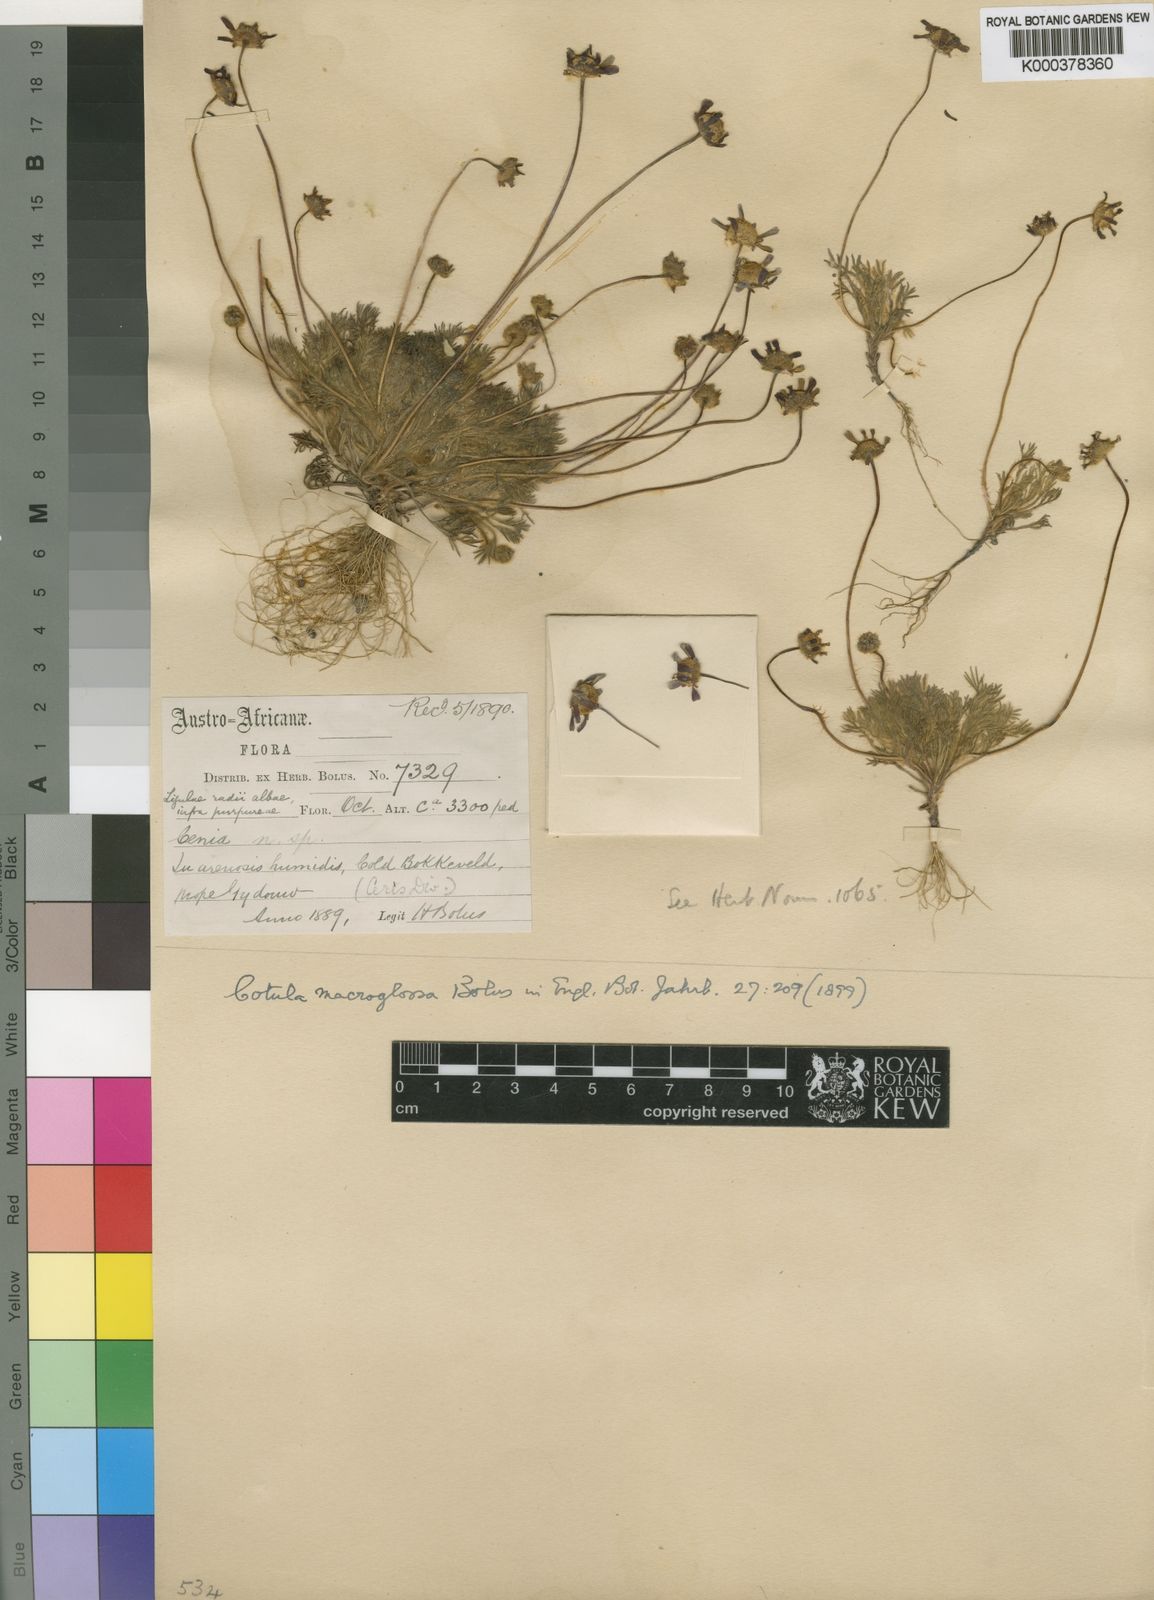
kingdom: Plantae
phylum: Tracheophyta
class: Magnoliopsida
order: Asterales
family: Asteraceae
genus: Cotula
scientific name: Cotula macroglossa
